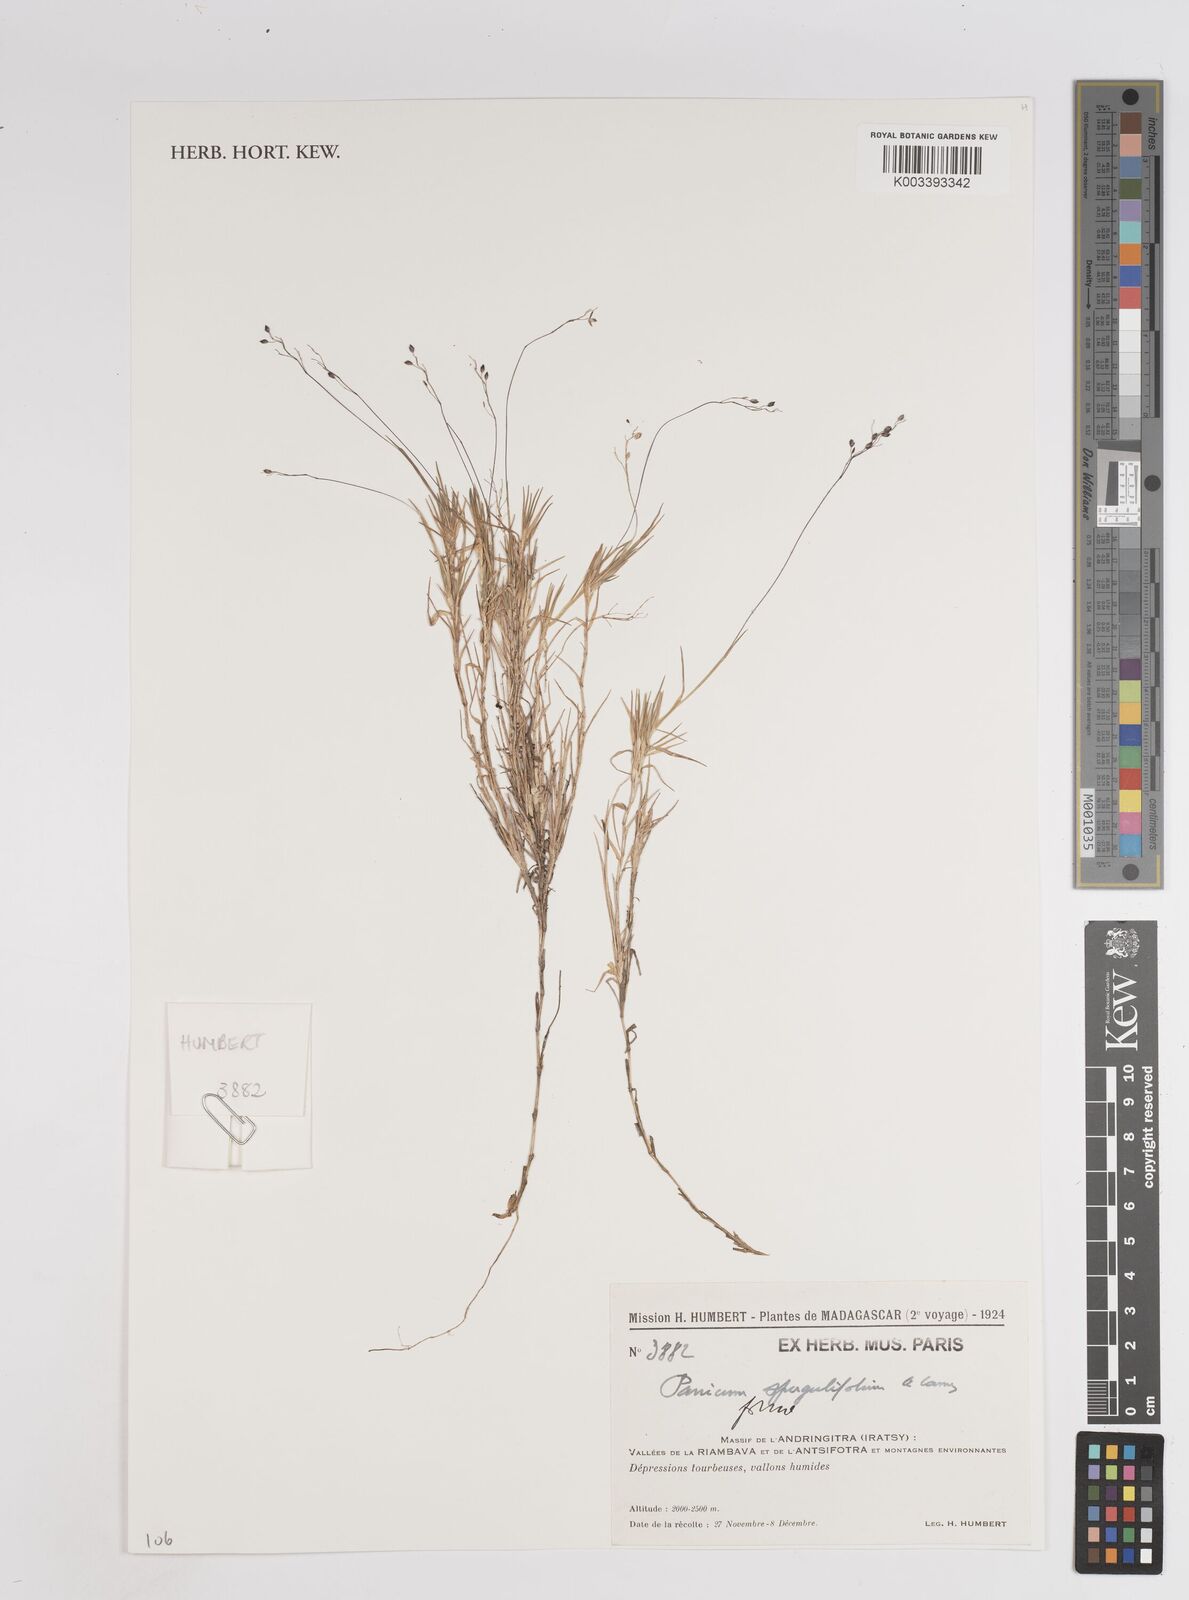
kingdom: Plantae
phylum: Tracheophyta
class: Liliopsida
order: Poales
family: Poaceae
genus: Panicum
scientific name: Panicum spergulifolium
